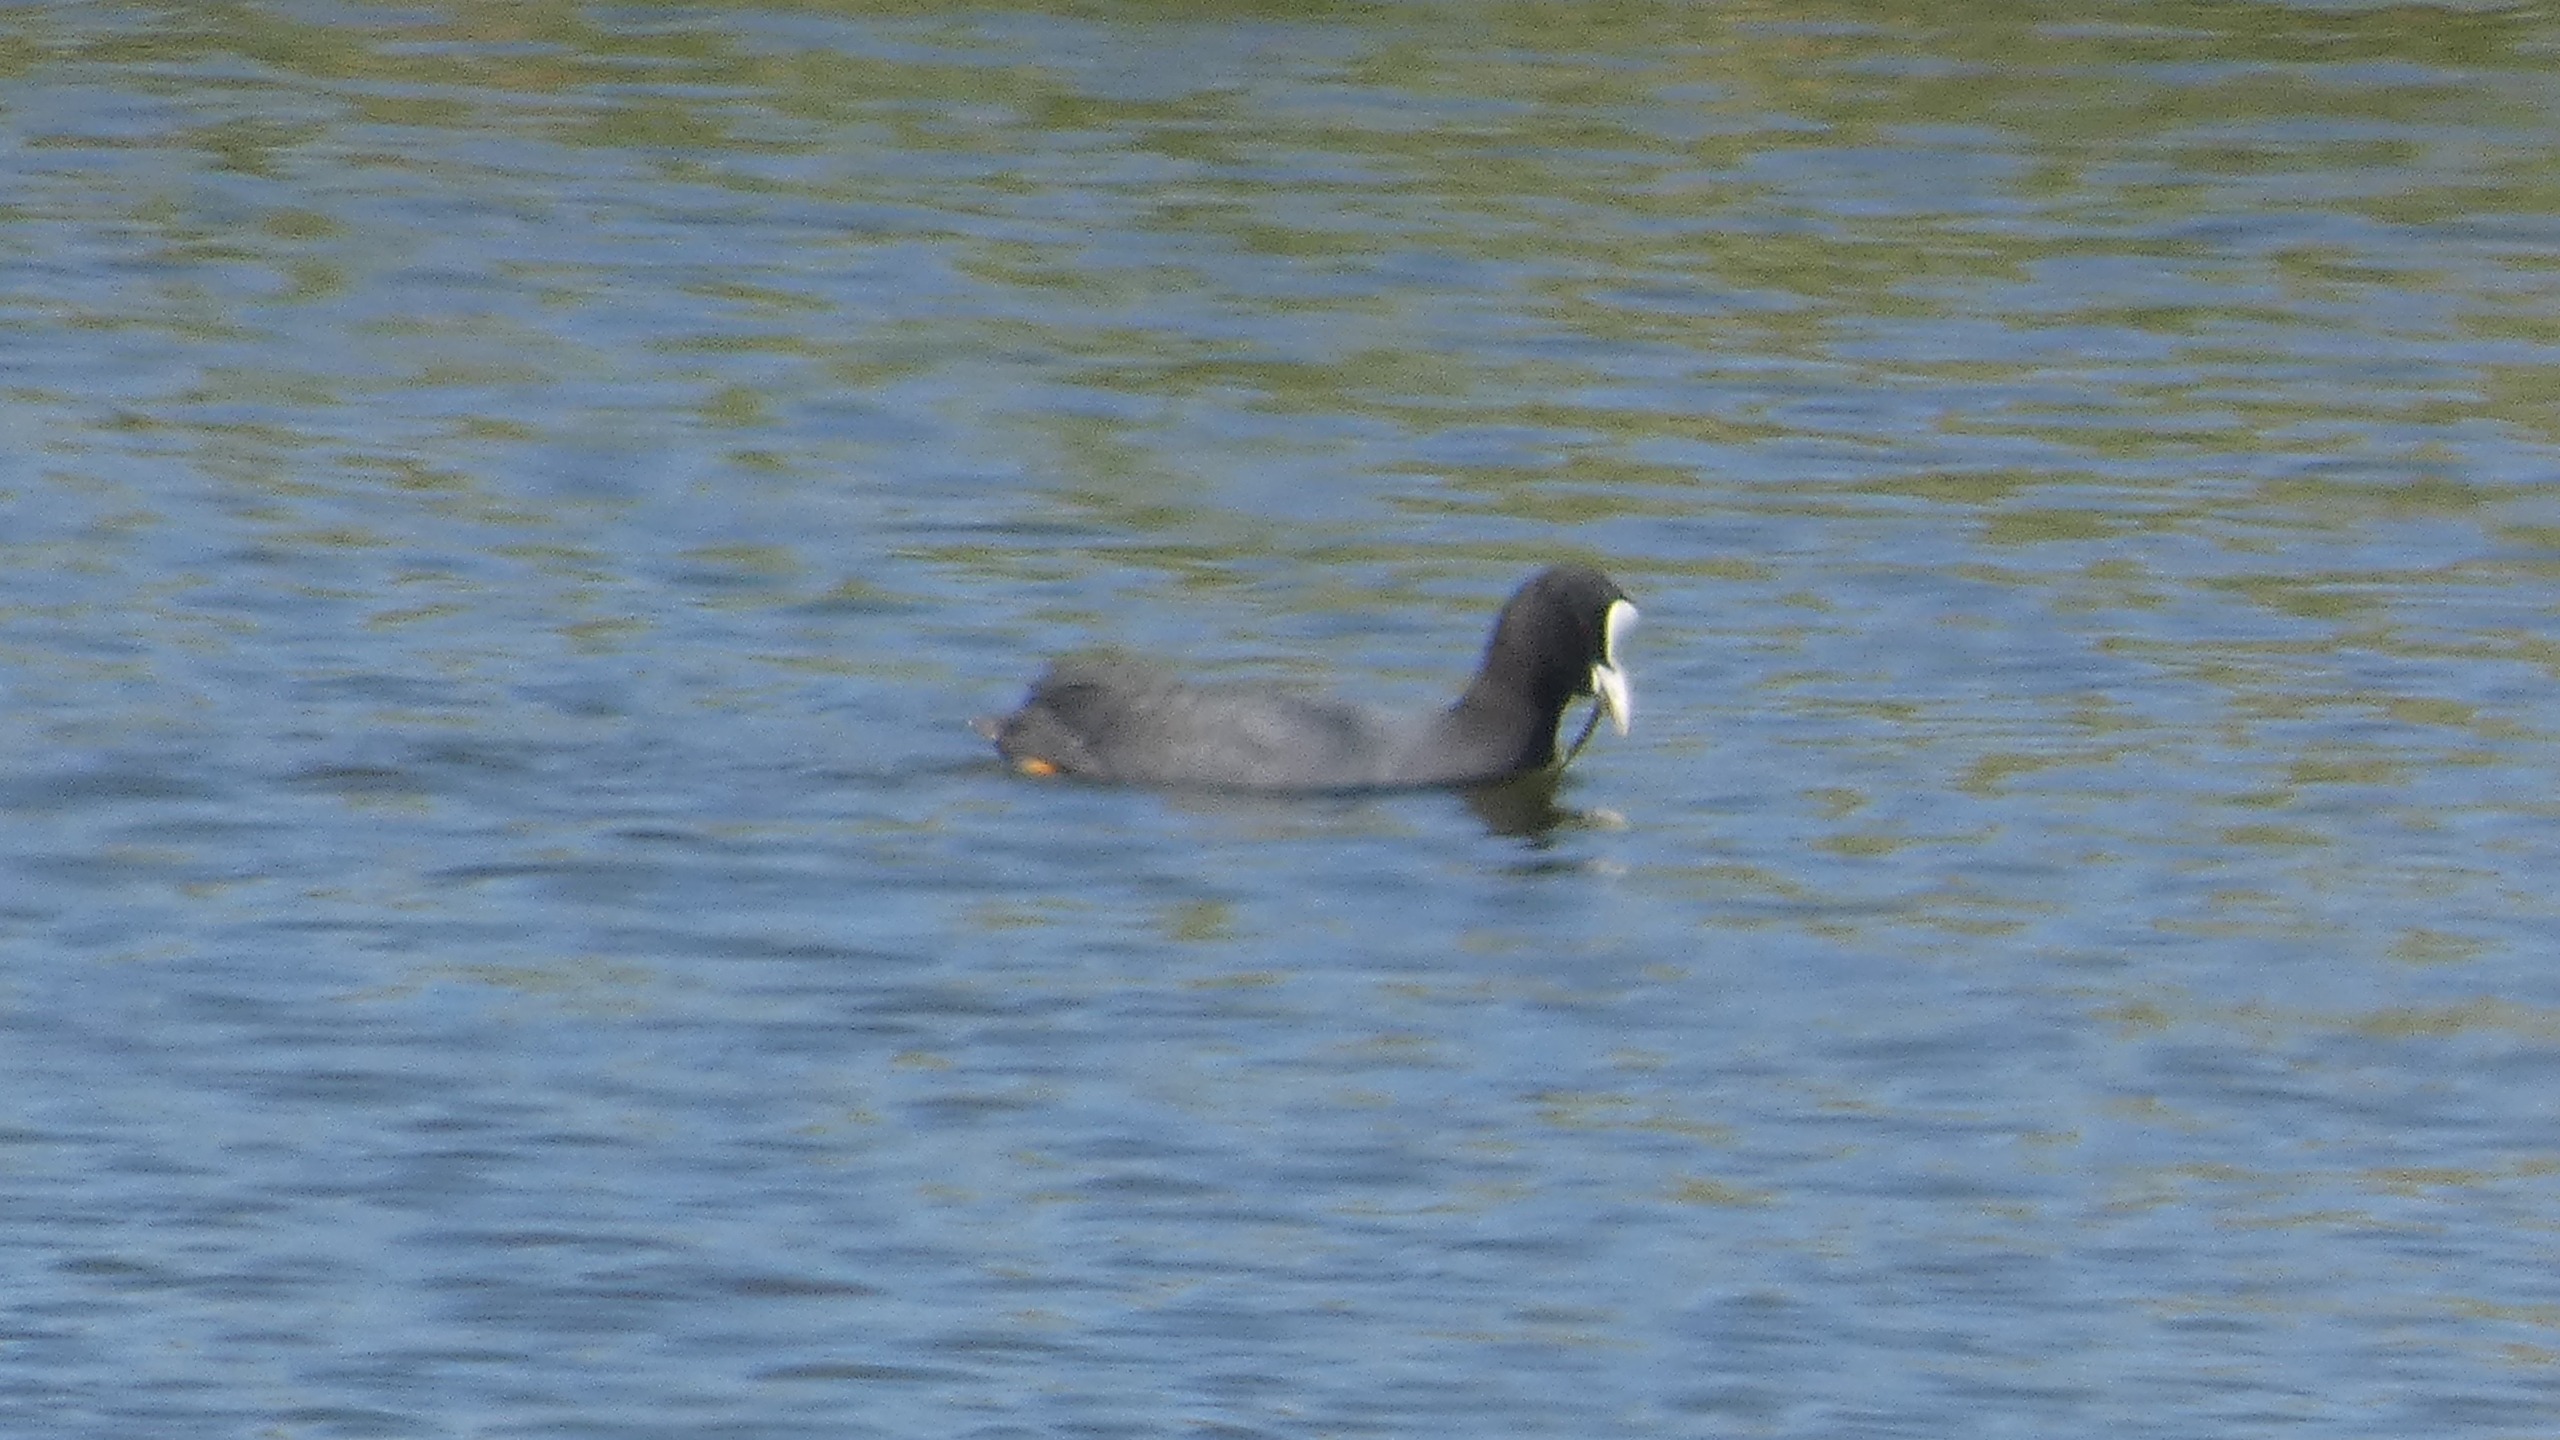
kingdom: Animalia
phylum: Chordata
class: Aves
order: Gruiformes
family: Rallidae
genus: Fulica
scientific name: Fulica atra
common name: Blishøne
